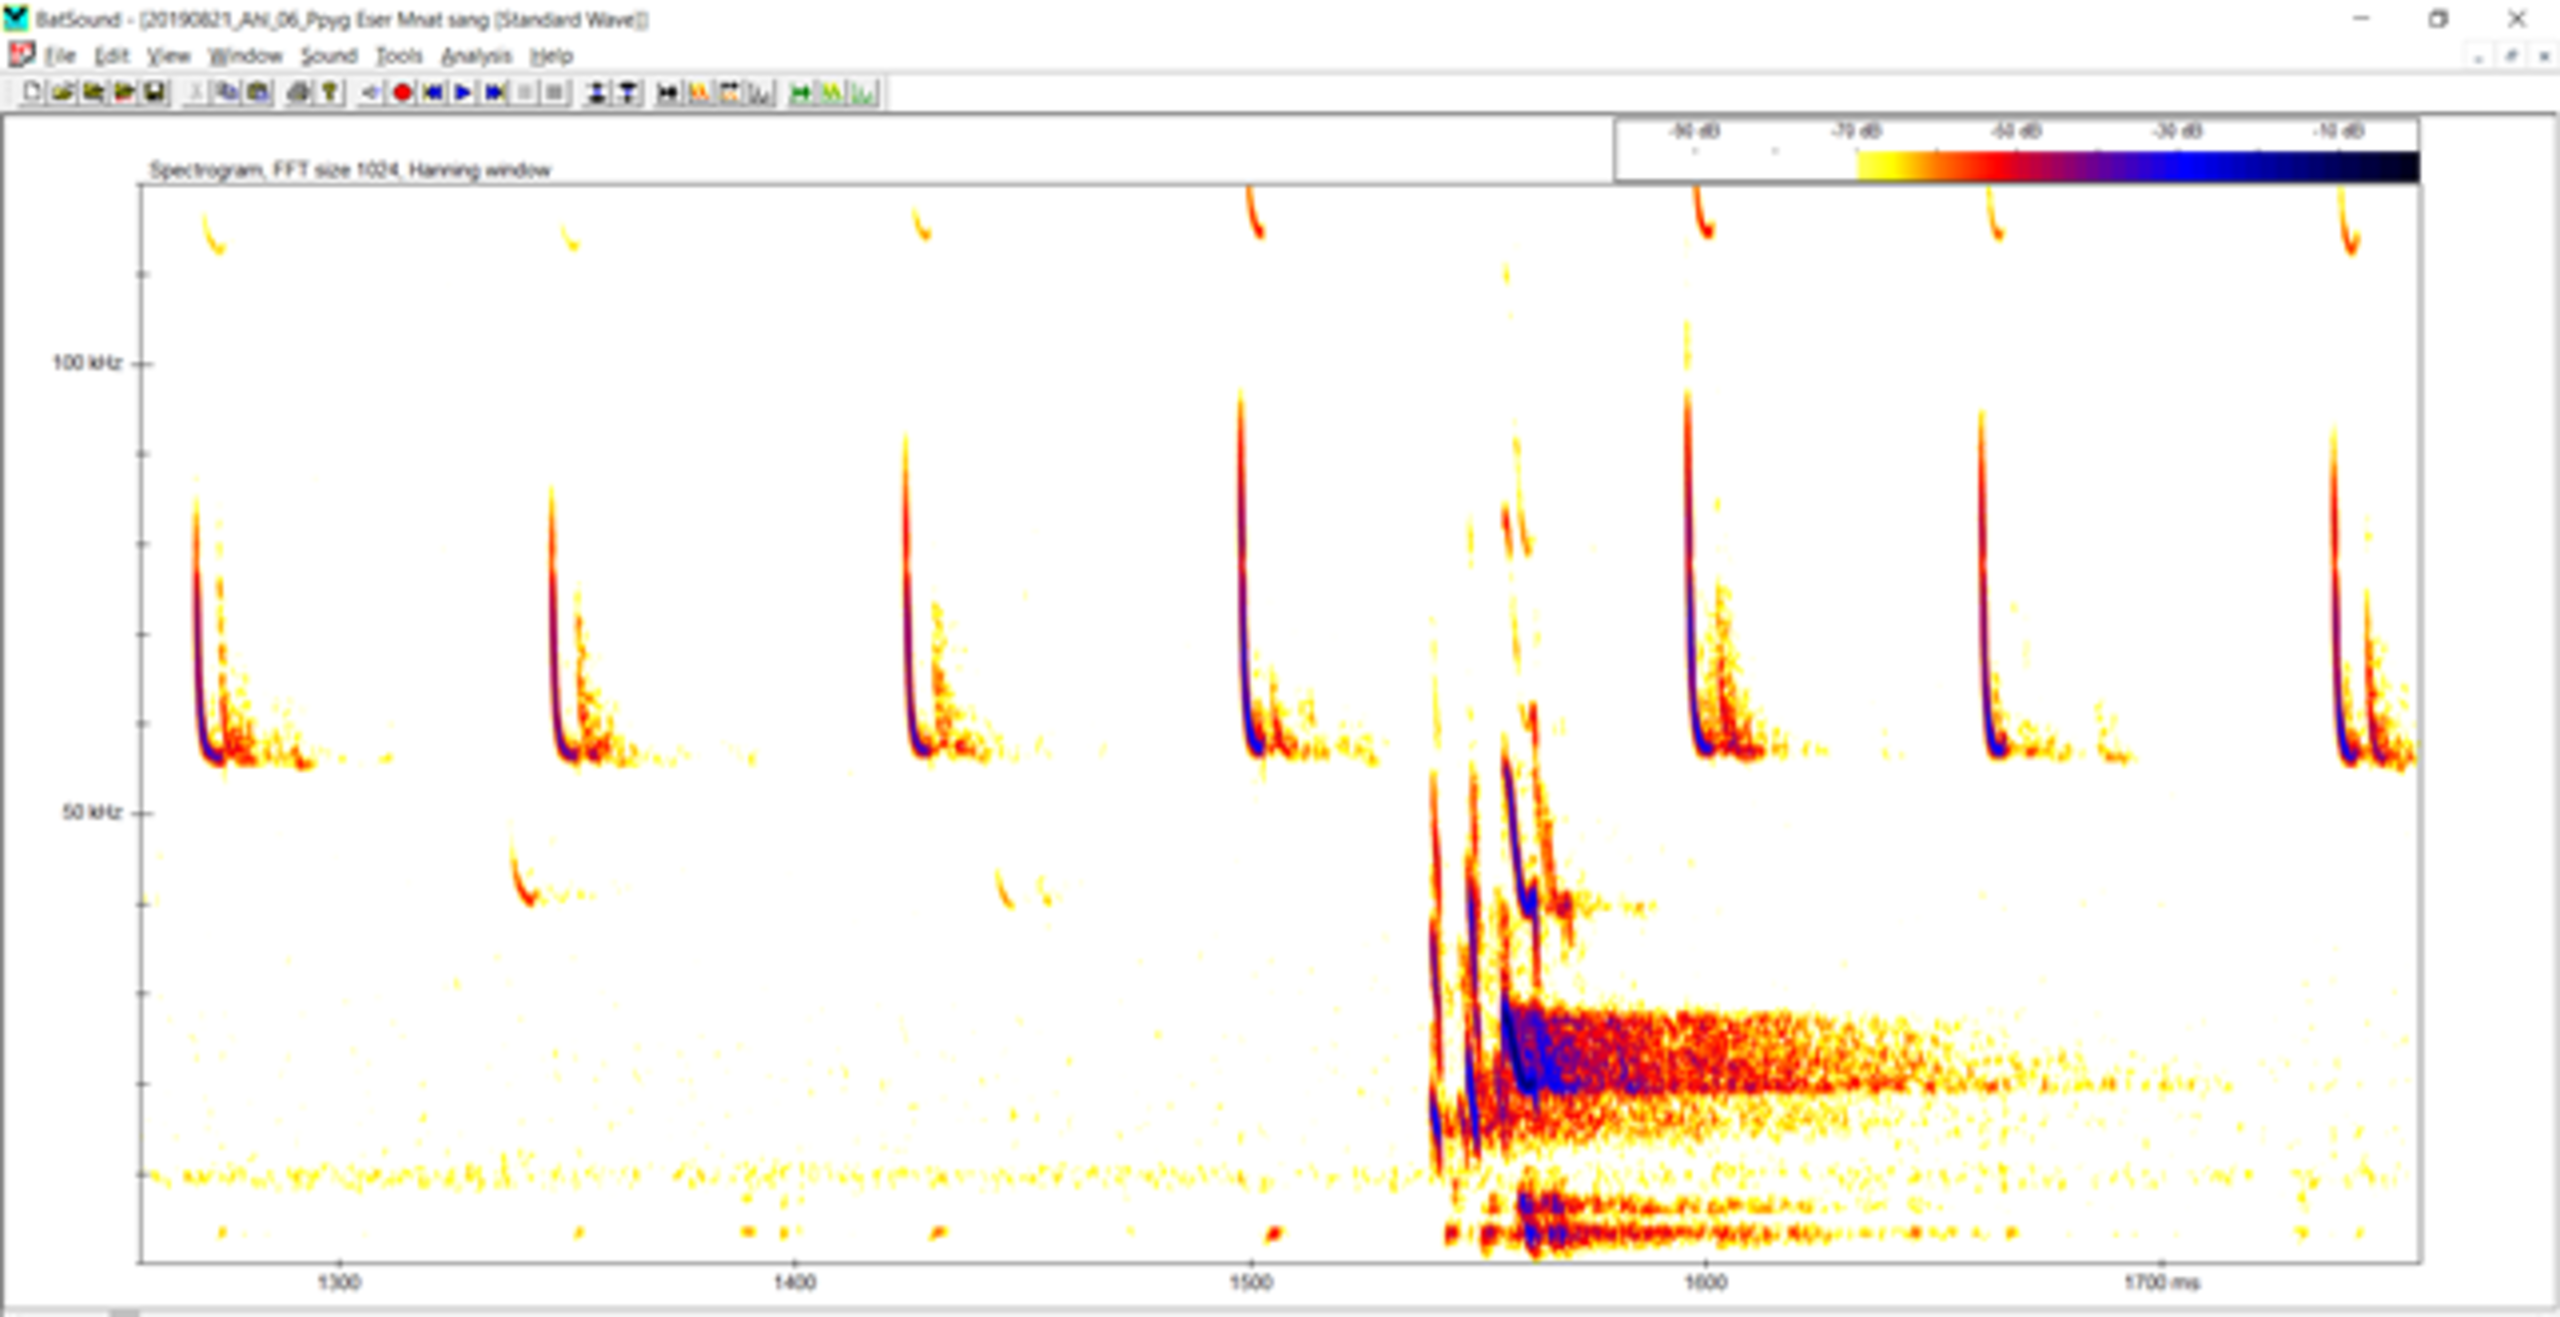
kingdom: Animalia
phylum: Chordata
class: Mammalia
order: Chiroptera
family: Vespertilionidae
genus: Pipistrellus
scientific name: Pipistrellus pygmaeus
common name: Dværgflagermus
